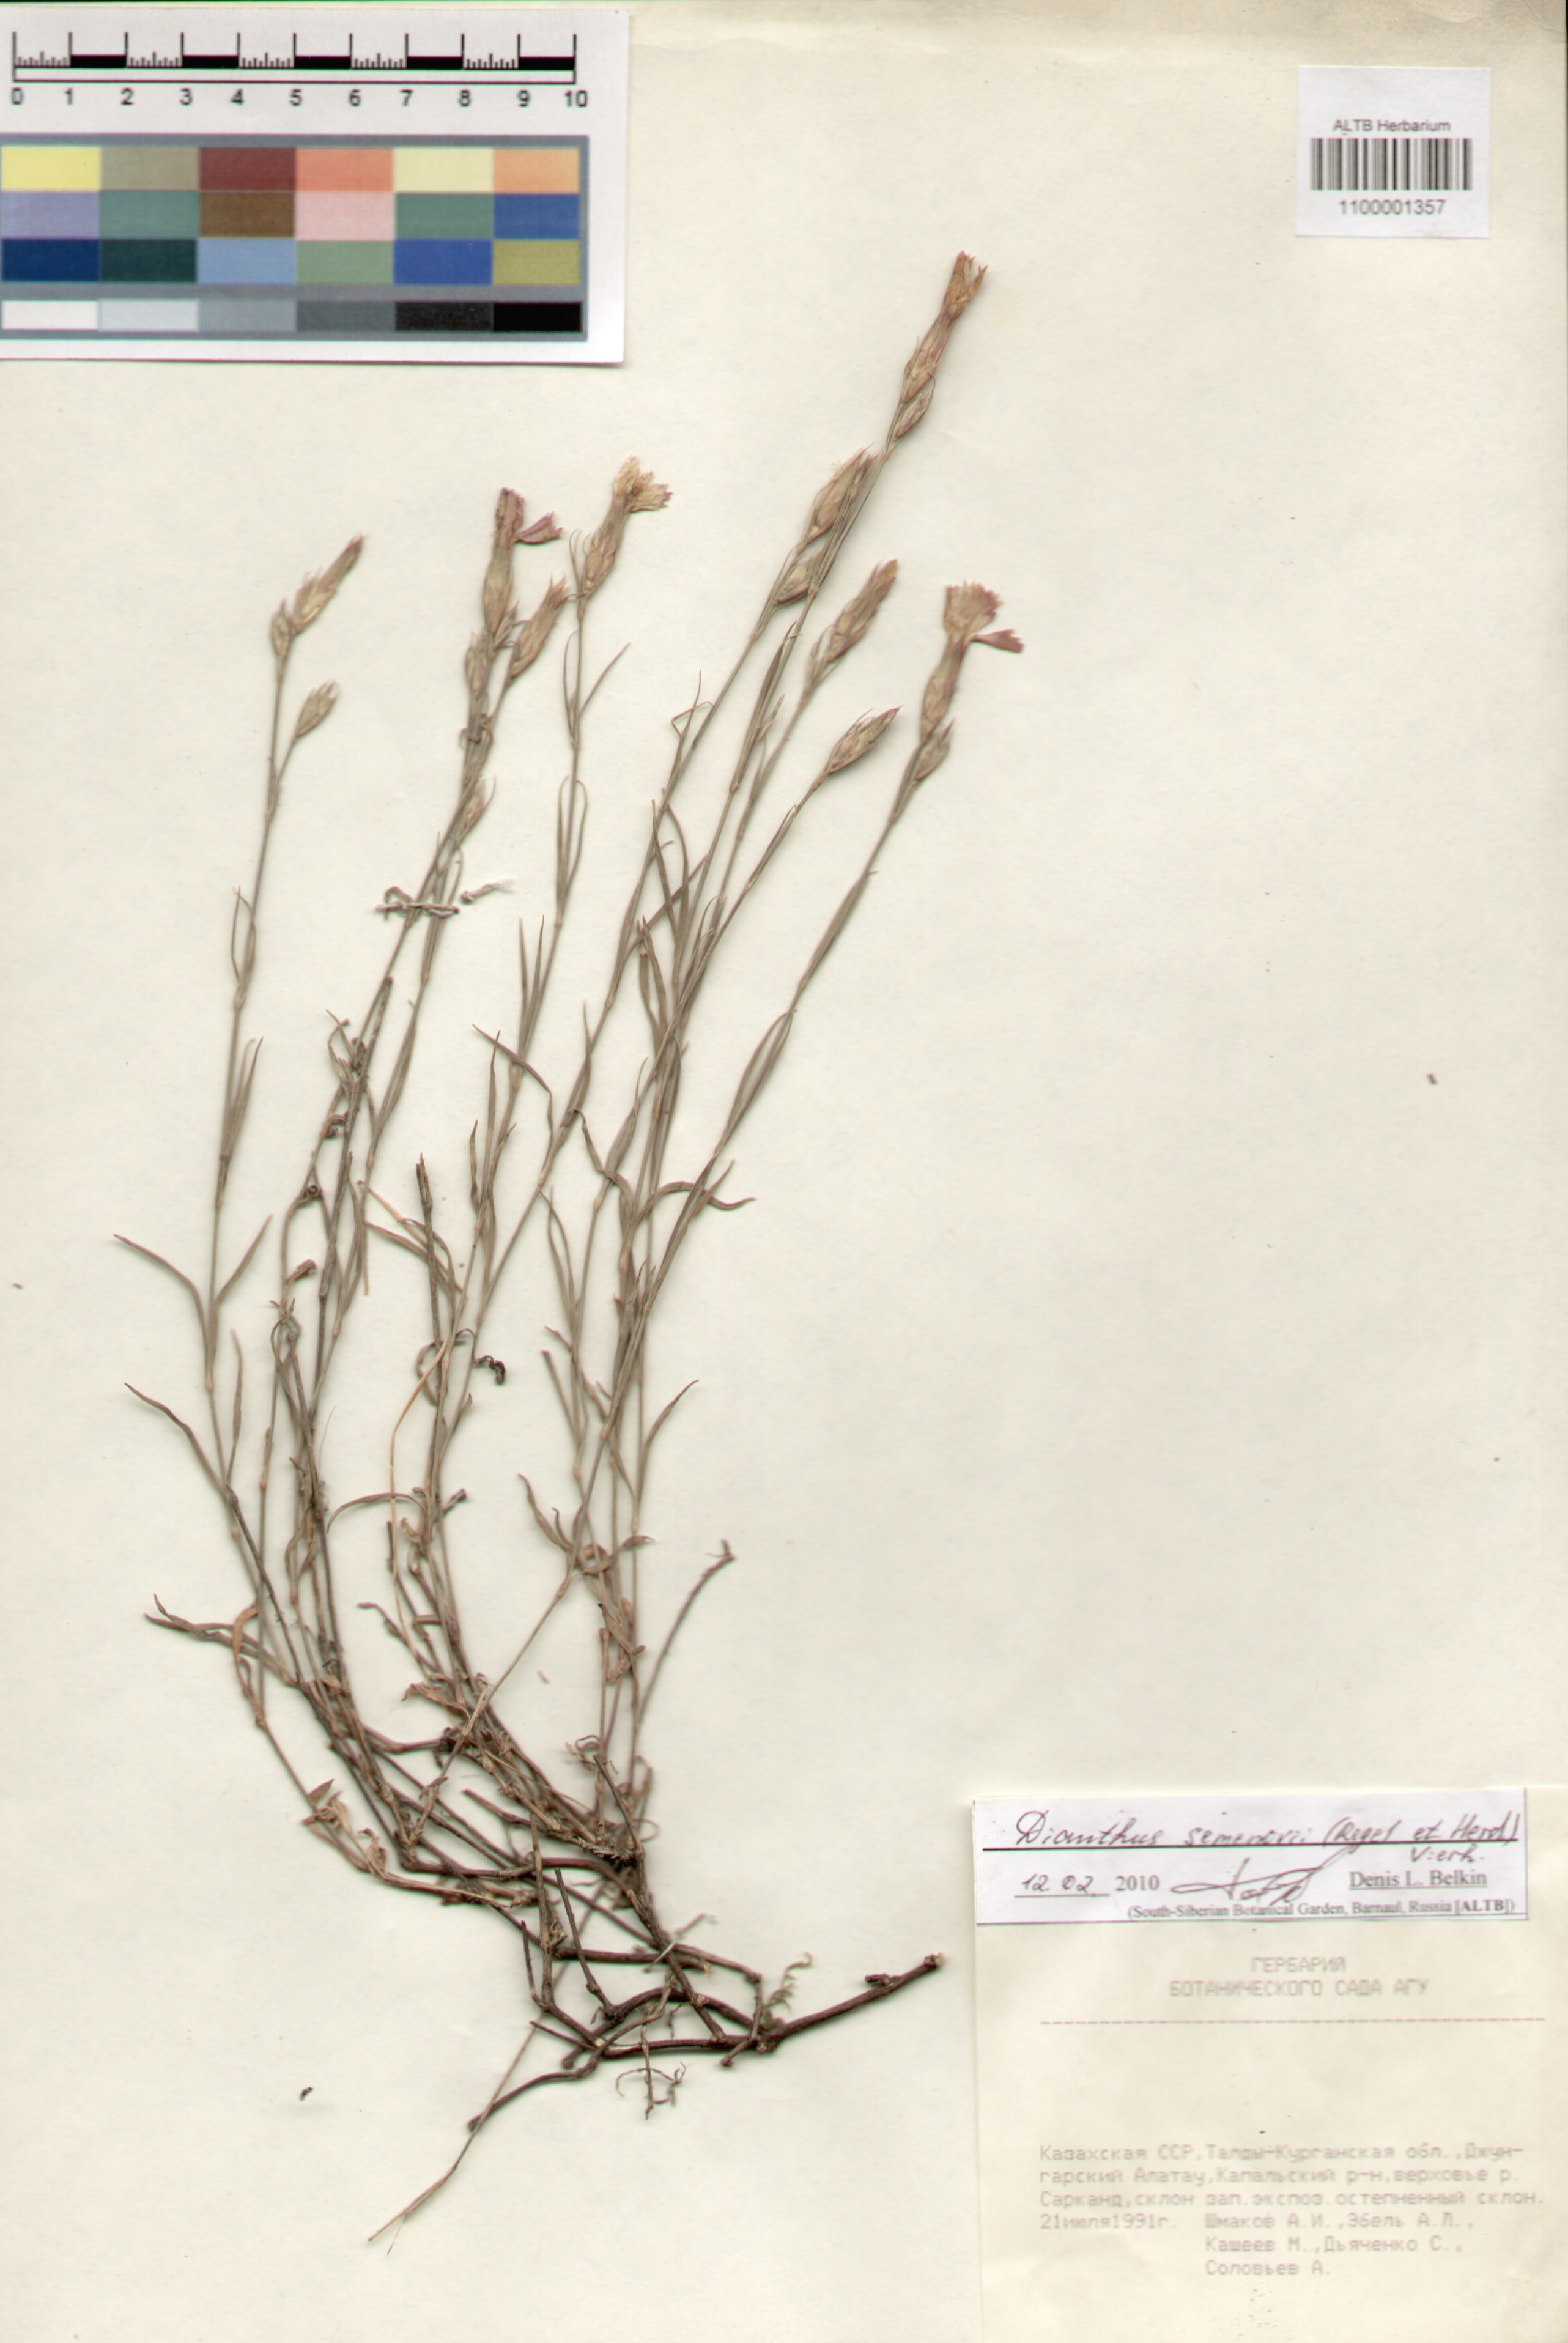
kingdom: Plantae
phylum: Tracheophyta
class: Magnoliopsida
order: Caryophyllales
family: Caryophyllaceae
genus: Dianthus
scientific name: Dianthus semenovii
